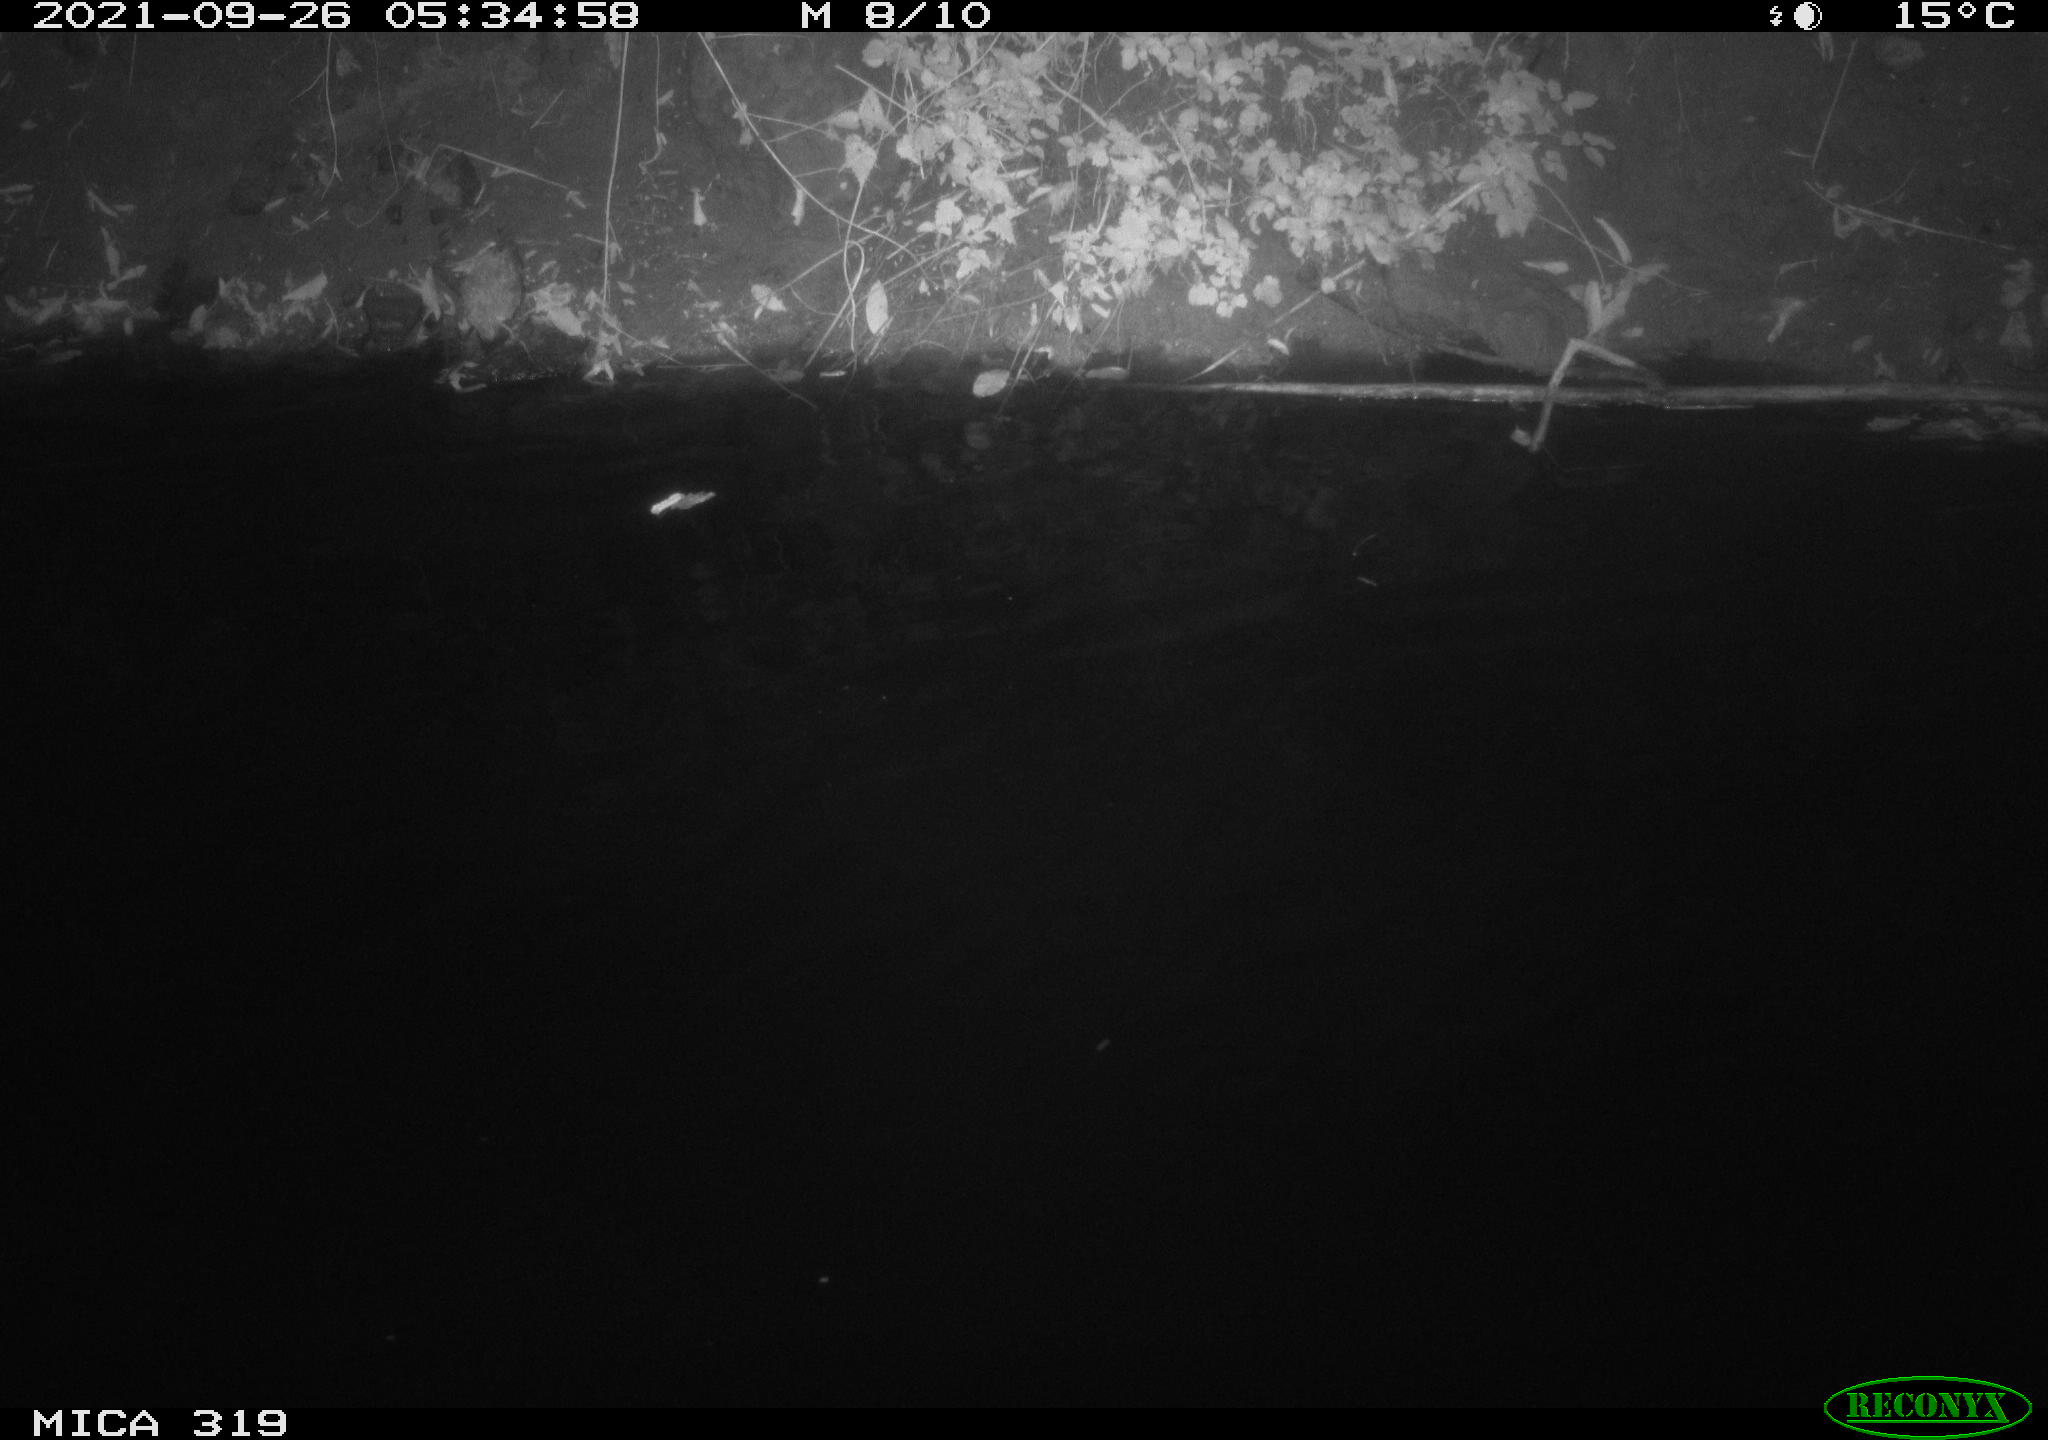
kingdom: Animalia
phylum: Chordata
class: Aves
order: Anseriformes
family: Anatidae
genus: Anas
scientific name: Anas platyrhynchos
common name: Mallard
